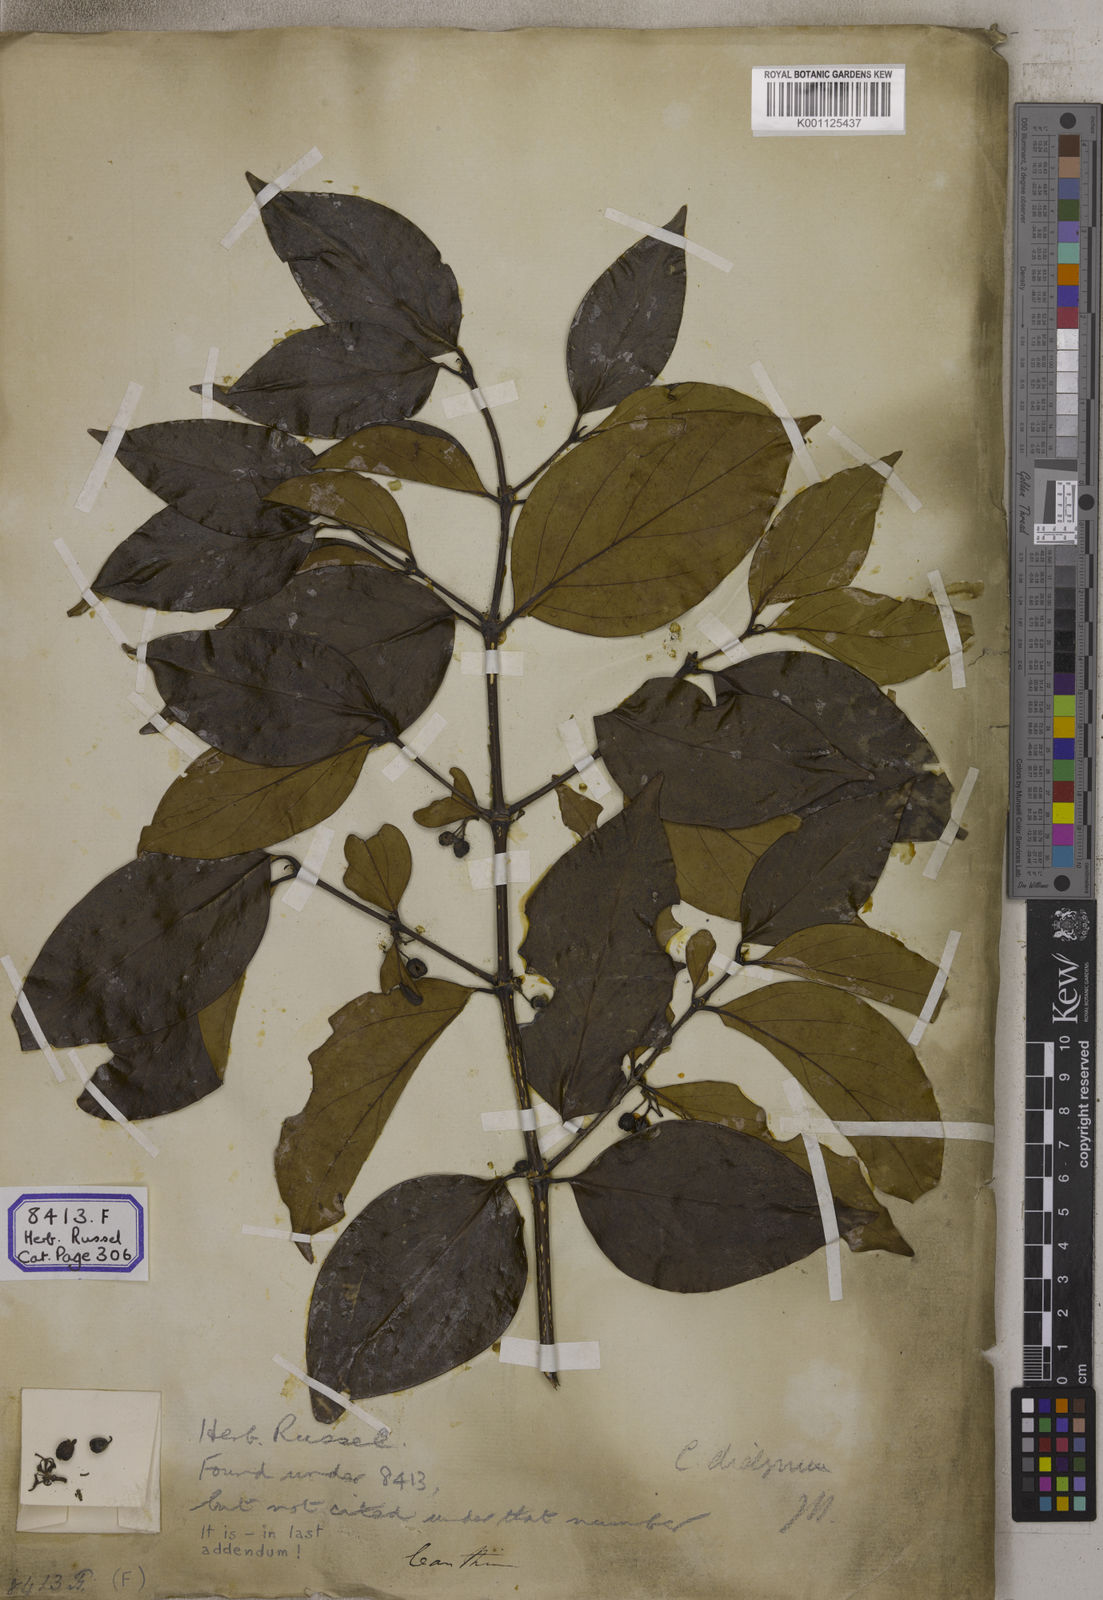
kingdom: Plantae
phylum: Tracheophyta
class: Magnoliopsida
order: Gentianales
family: Rubiaceae
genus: Psydrax
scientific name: Psydrax dicoccos
